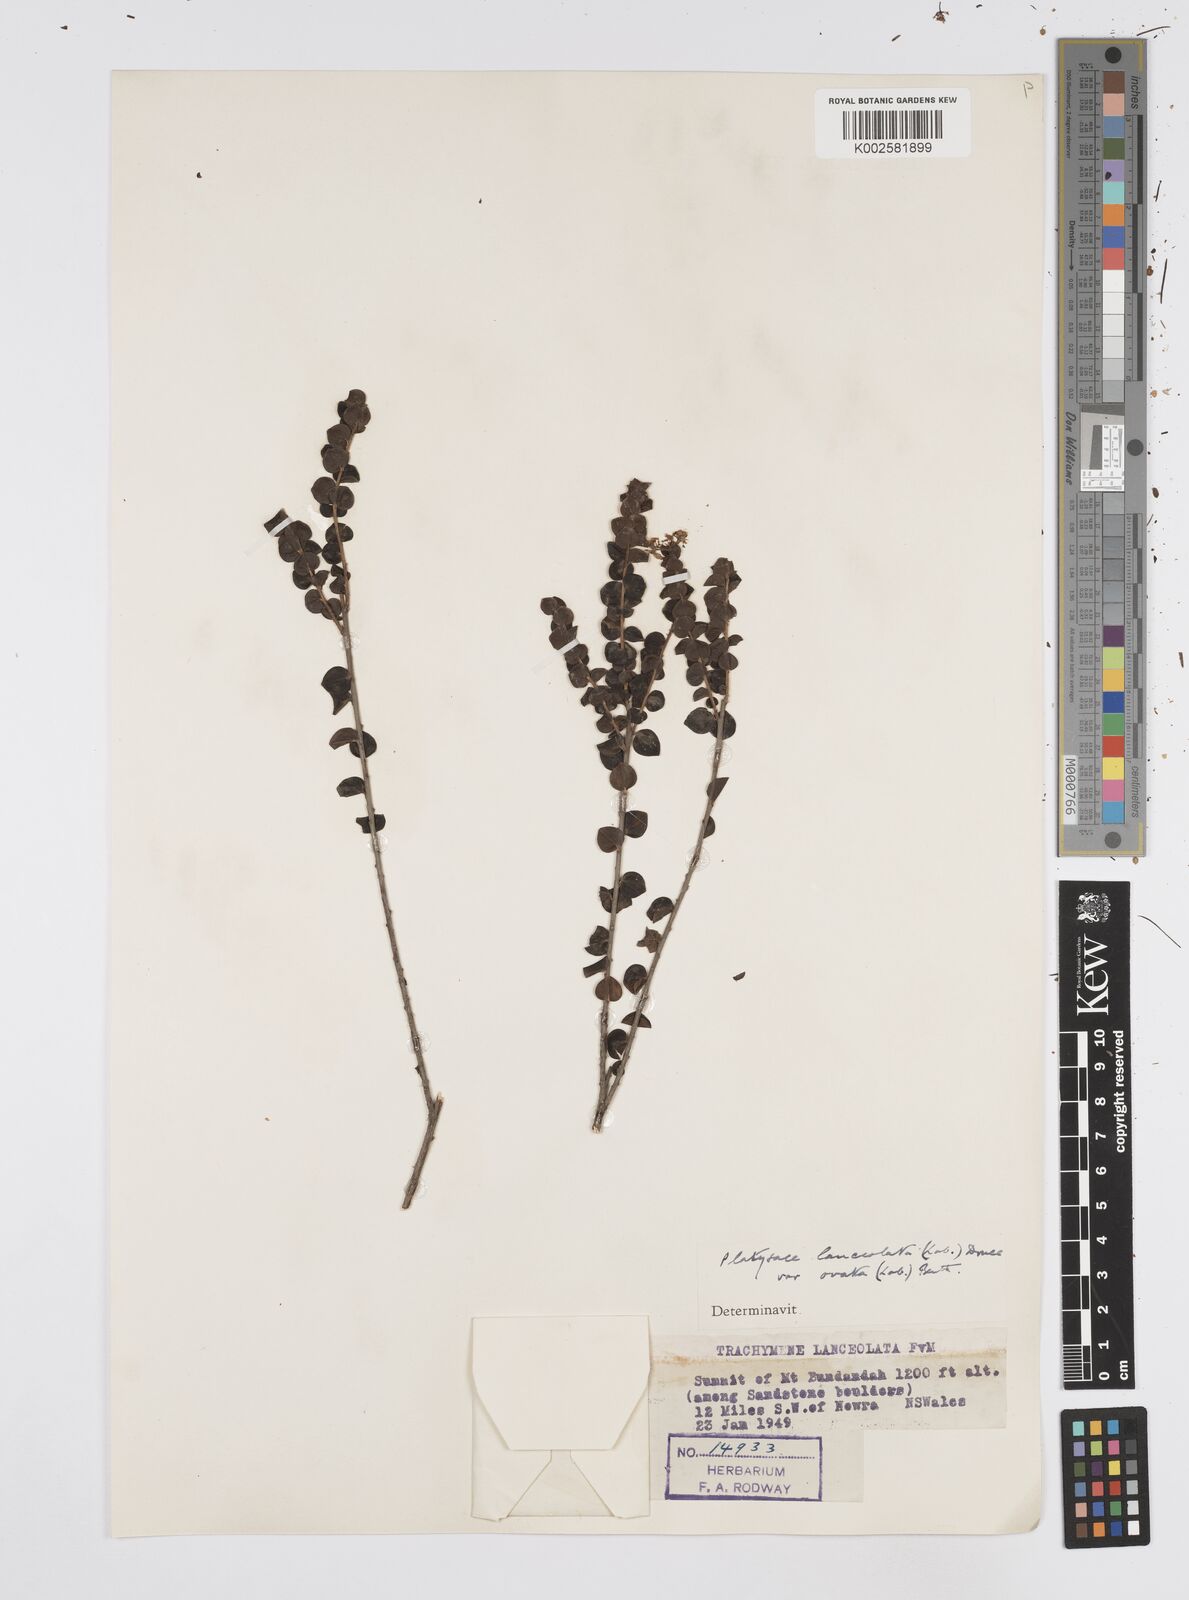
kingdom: Plantae
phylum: Tracheophyta
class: Magnoliopsida
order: Apiales
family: Apiaceae
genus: Platysace
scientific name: Platysace lanceolata
